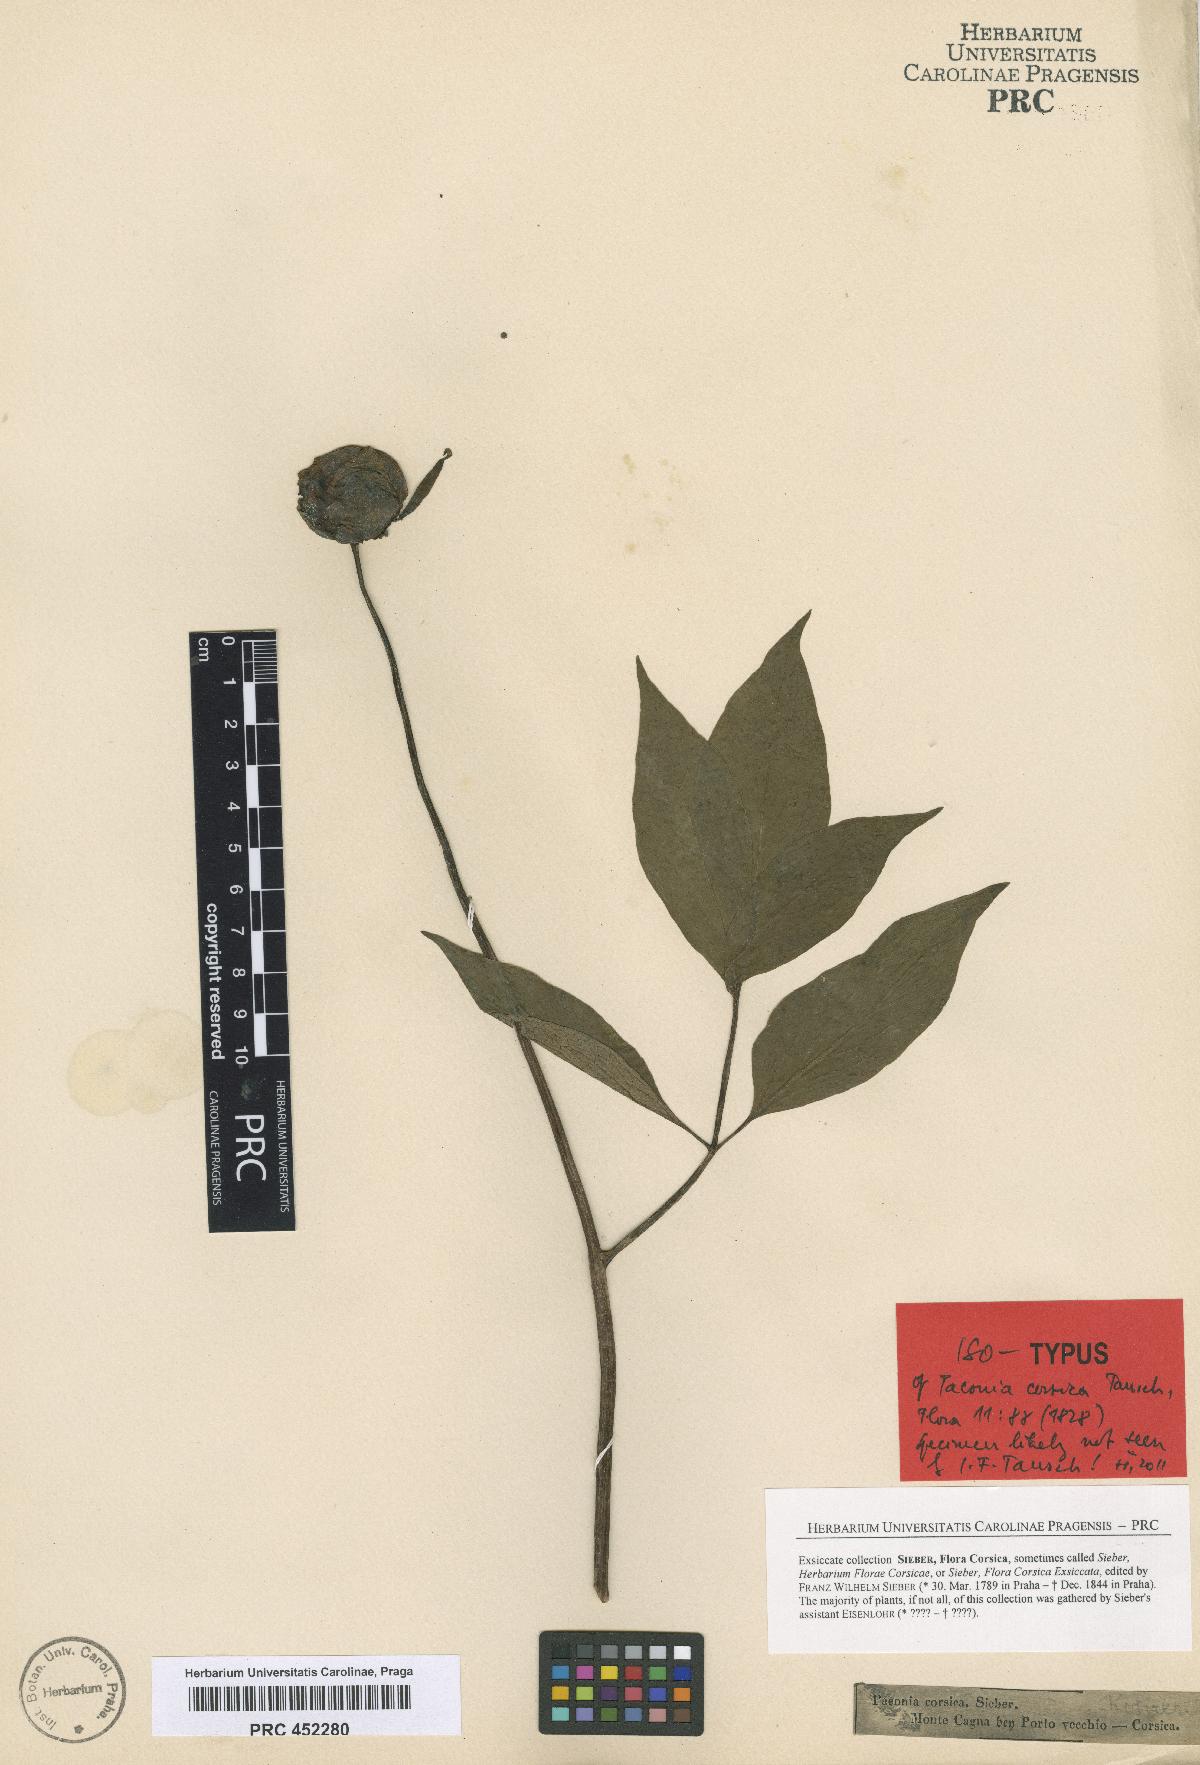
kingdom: Plantae
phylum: Tracheophyta
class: Magnoliopsida
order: Saxifragales
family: Paeoniaceae
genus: Paeonia
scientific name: Paeonia corsica
